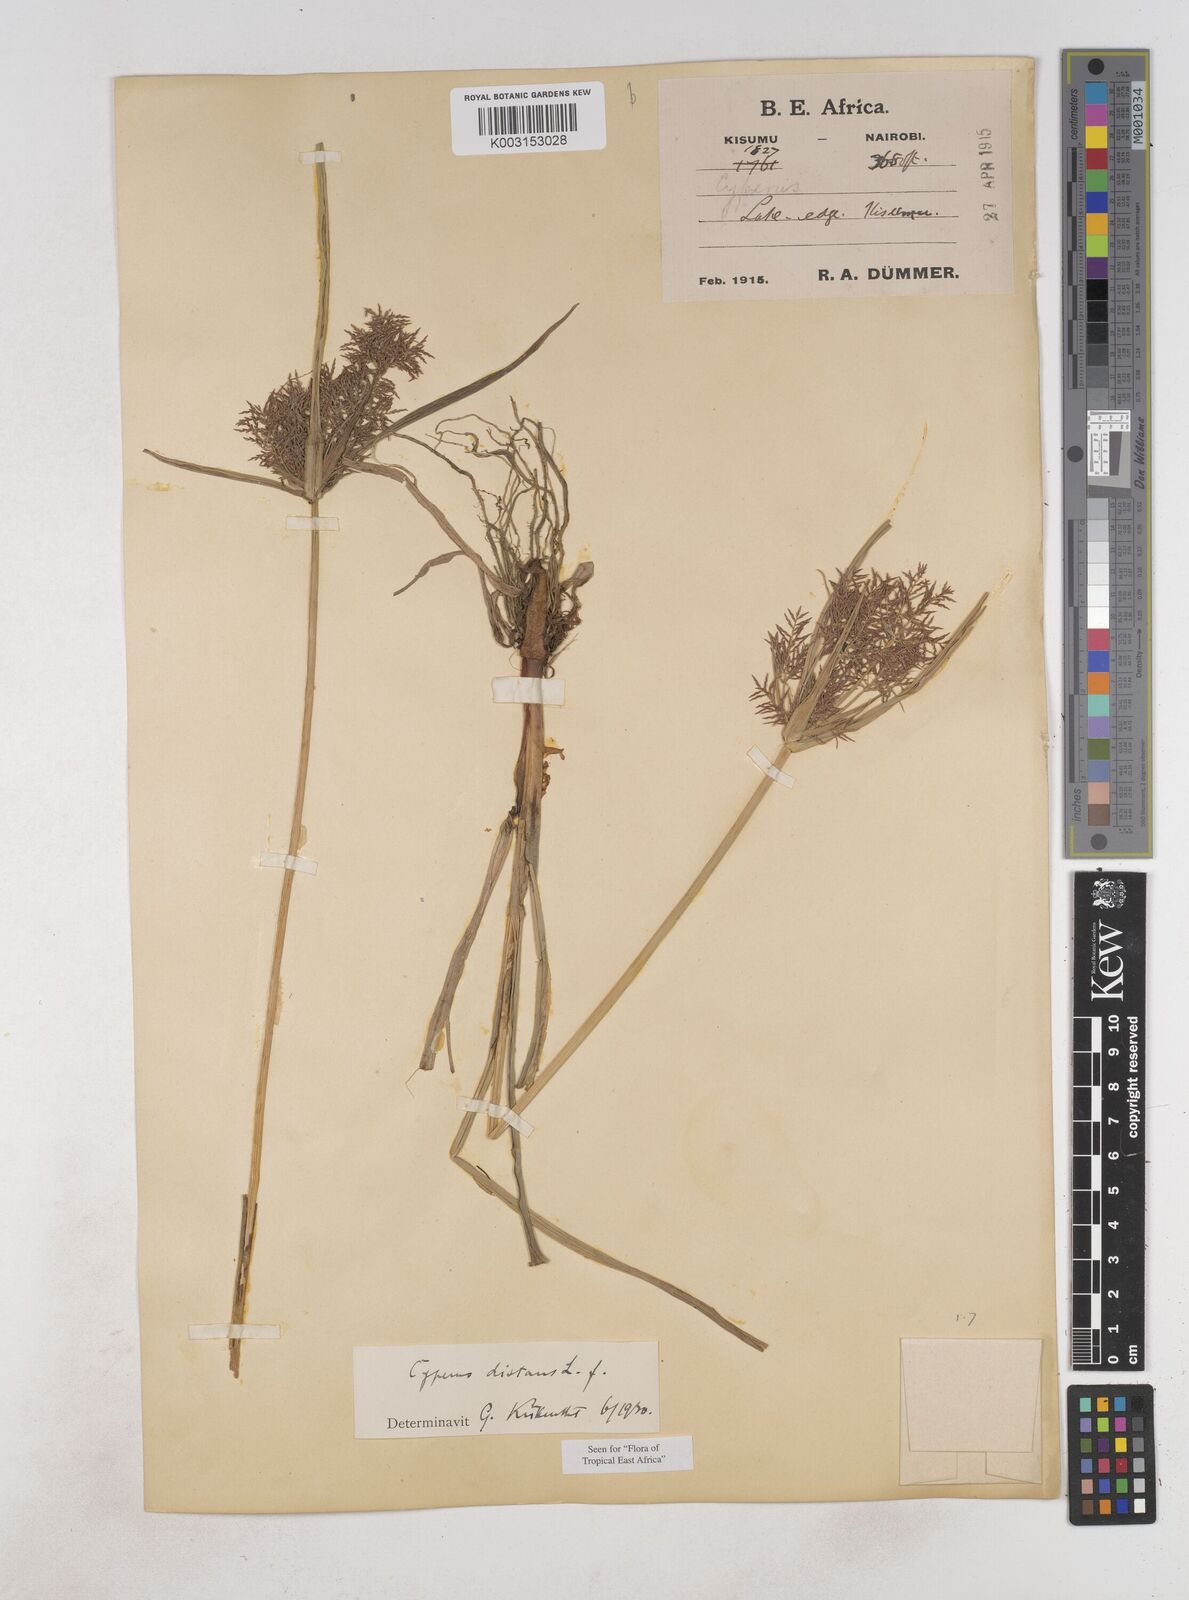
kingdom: Plantae
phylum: Tracheophyta
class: Liliopsida
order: Poales
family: Cyperaceae
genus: Cyperus
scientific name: Cyperus distans
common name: Slender cyperus
